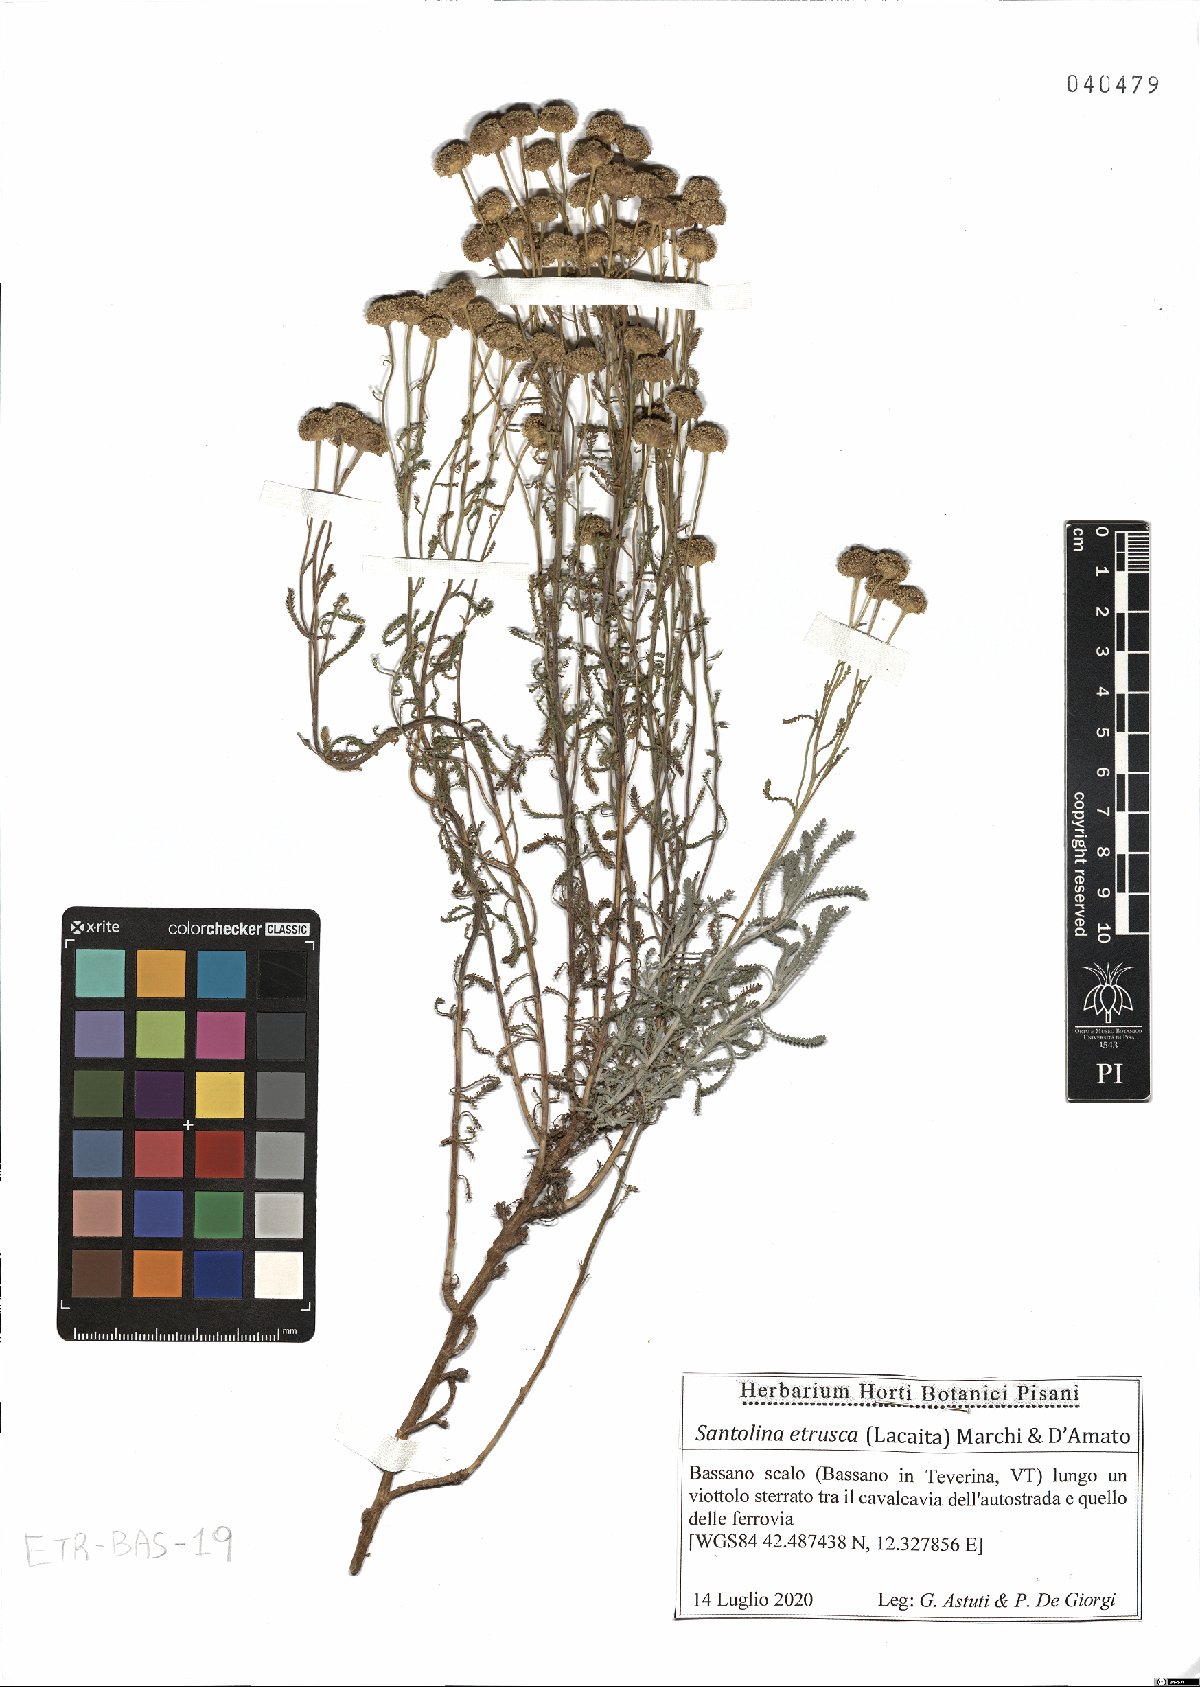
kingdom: Plantae
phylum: Tracheophyta
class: Magnoliopsida
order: Asterales
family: Asteraceae
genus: Santolina
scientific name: Santolina etrusca
